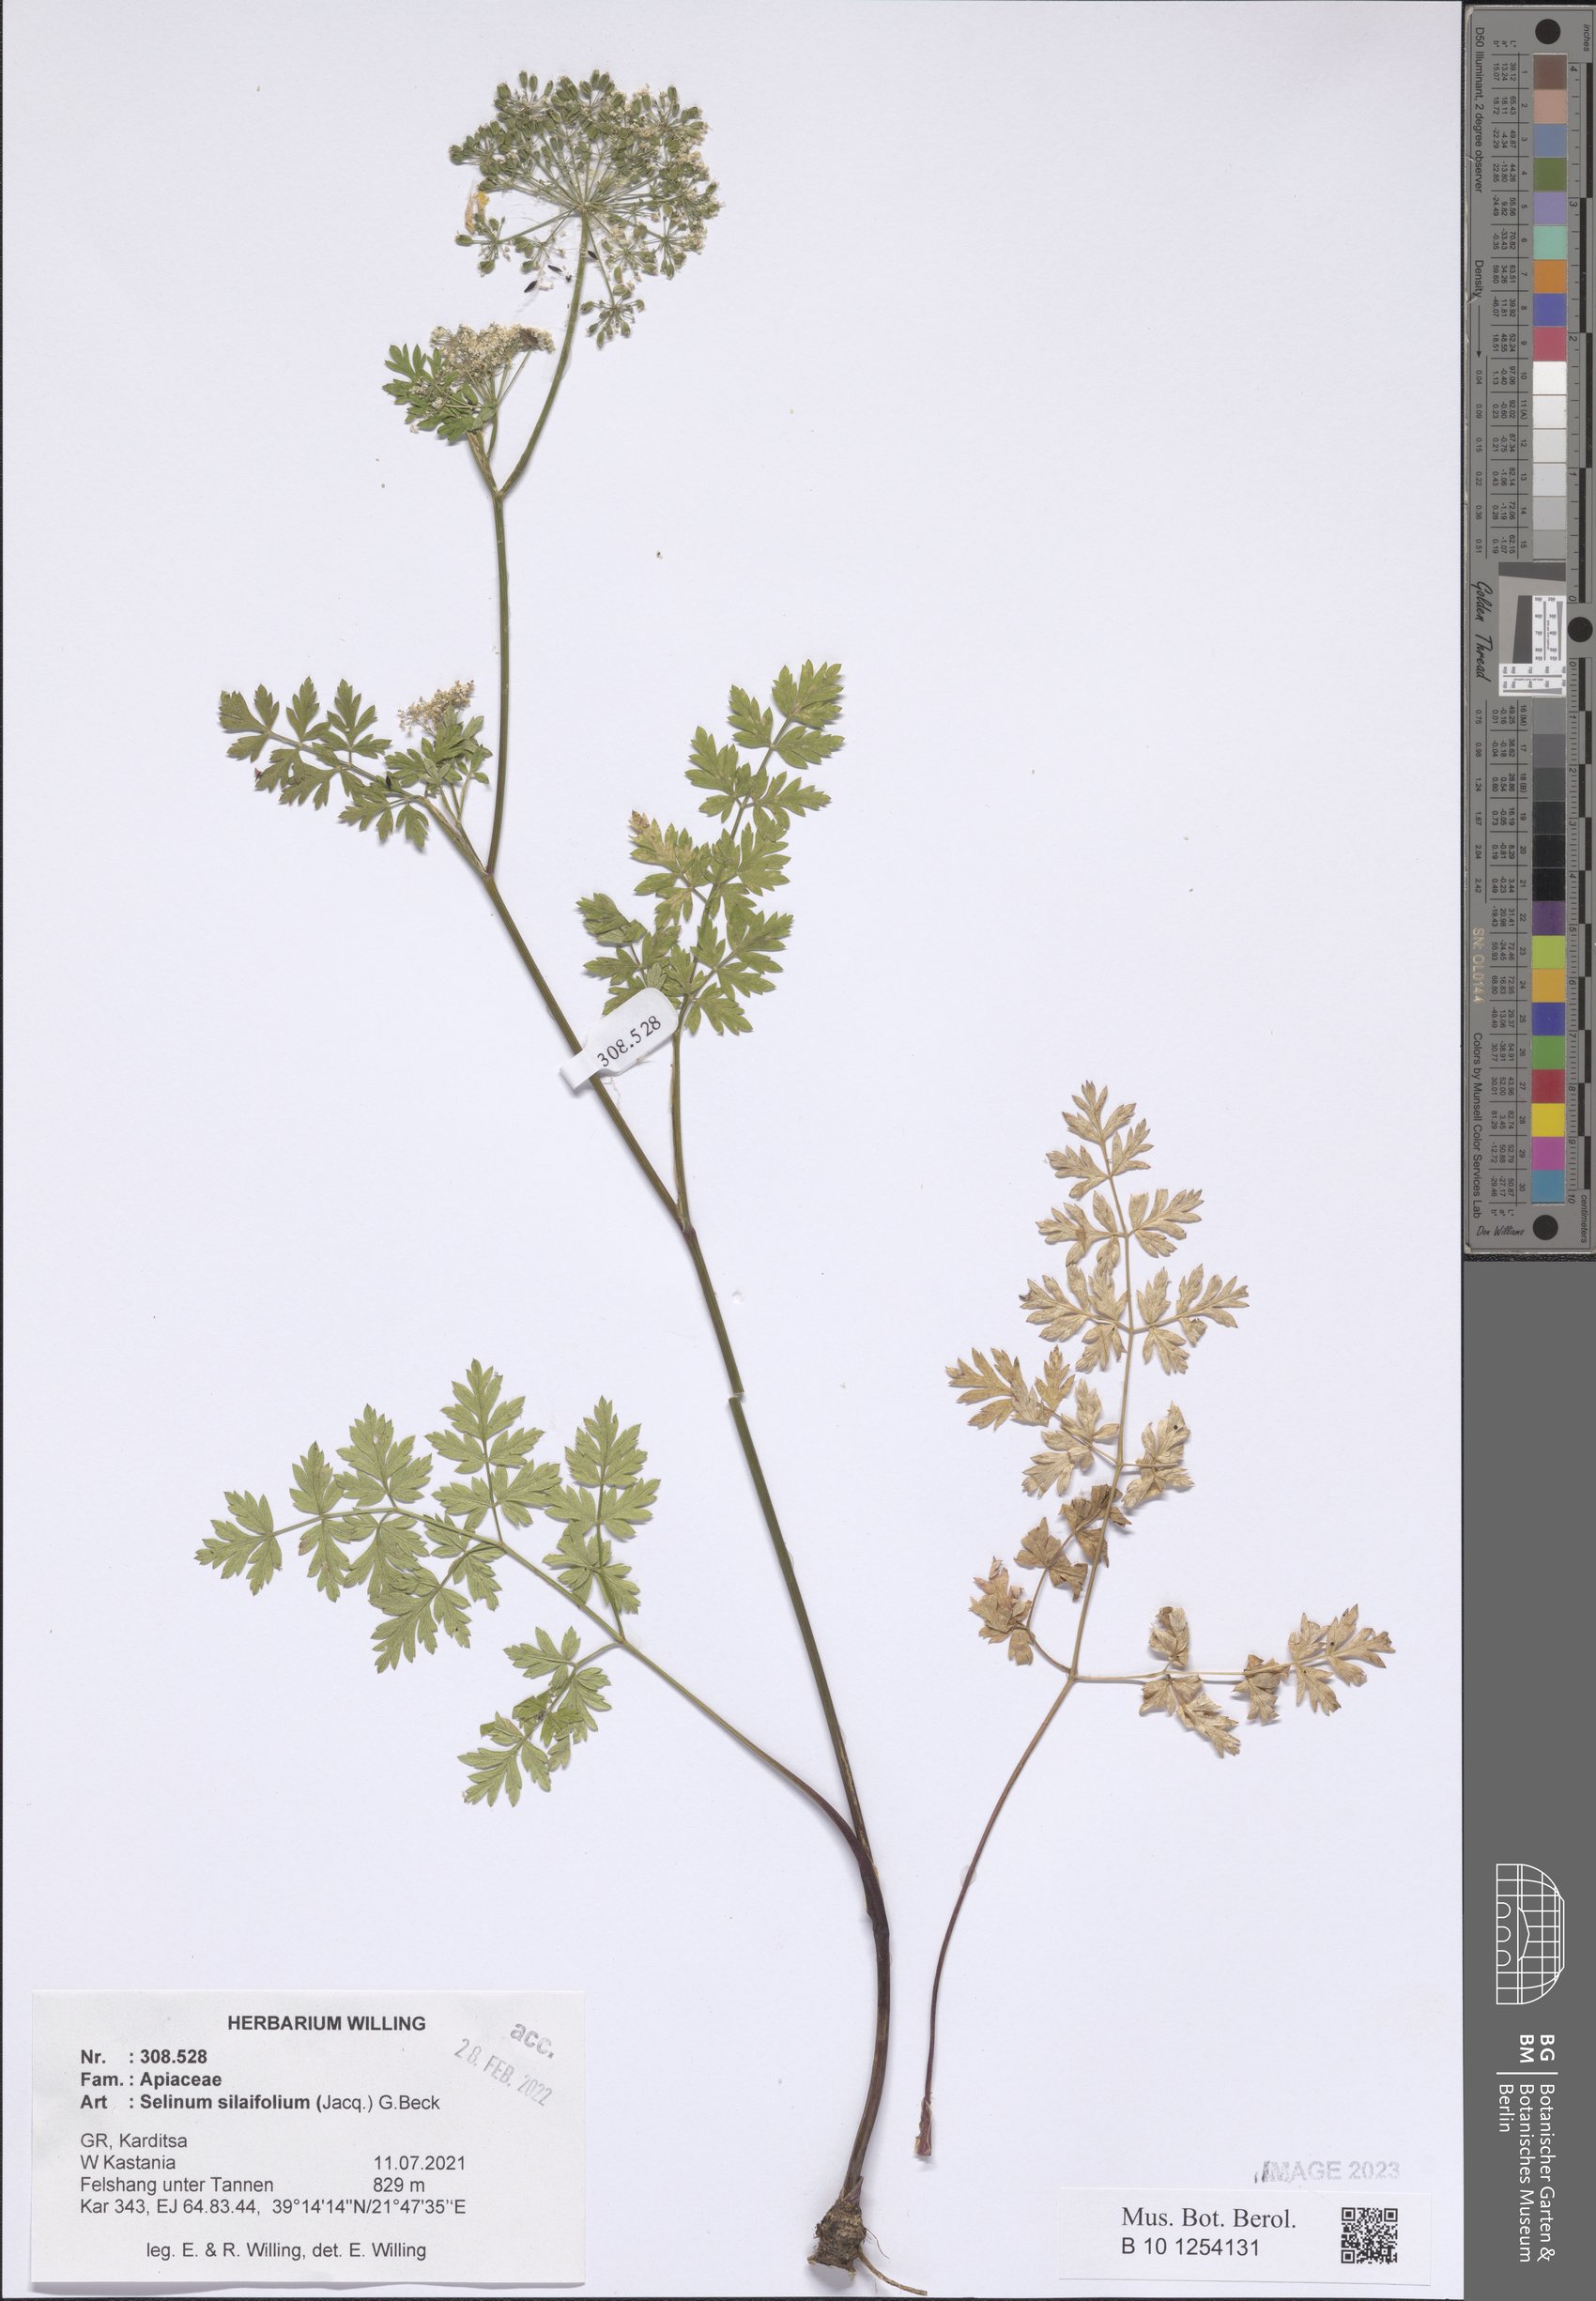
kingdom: Plantae
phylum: Tracheophyta
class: Magnoliopsida
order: Apiales
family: Apiaceae
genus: Katapsuxis
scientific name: Katapsuxis silaifolia
